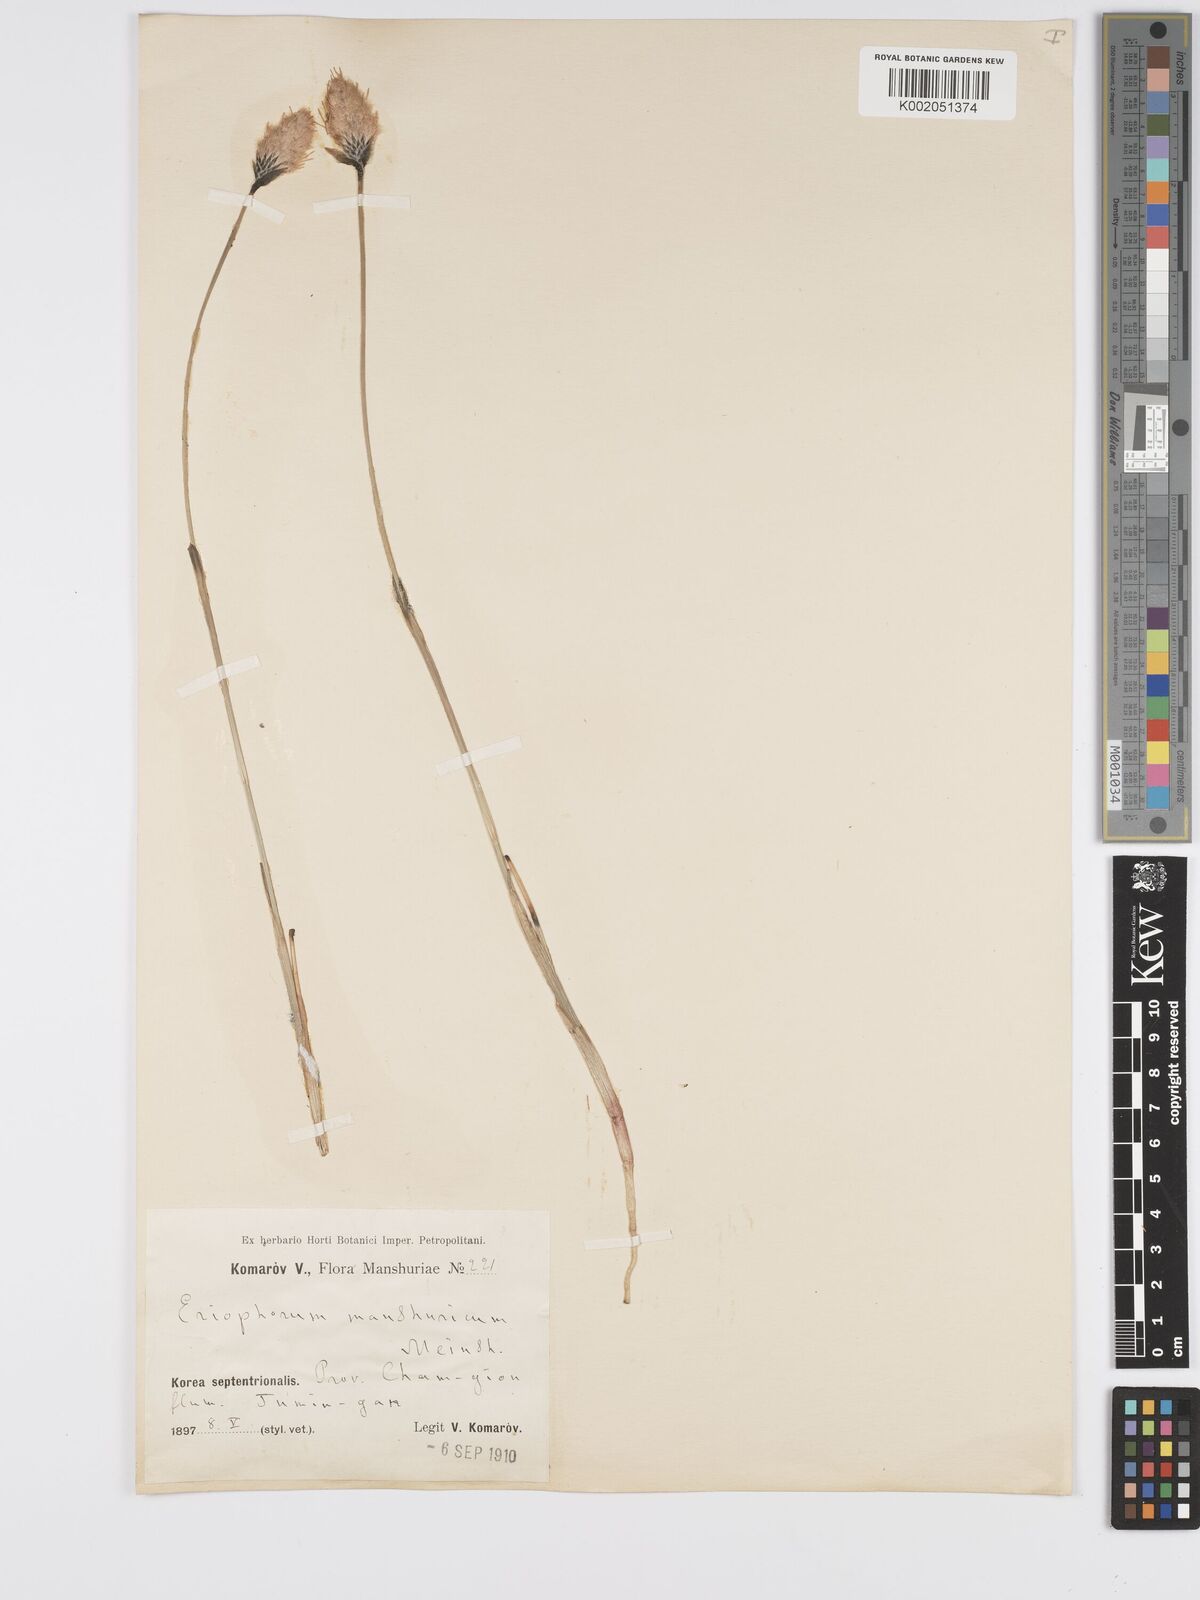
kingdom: Plantae
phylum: Tracheophyta
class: Liliopsida
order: Poales
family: Cyperaceae
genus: Eriophorum
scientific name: Eriophorum chamissonis
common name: Chamisso's cottongrass
